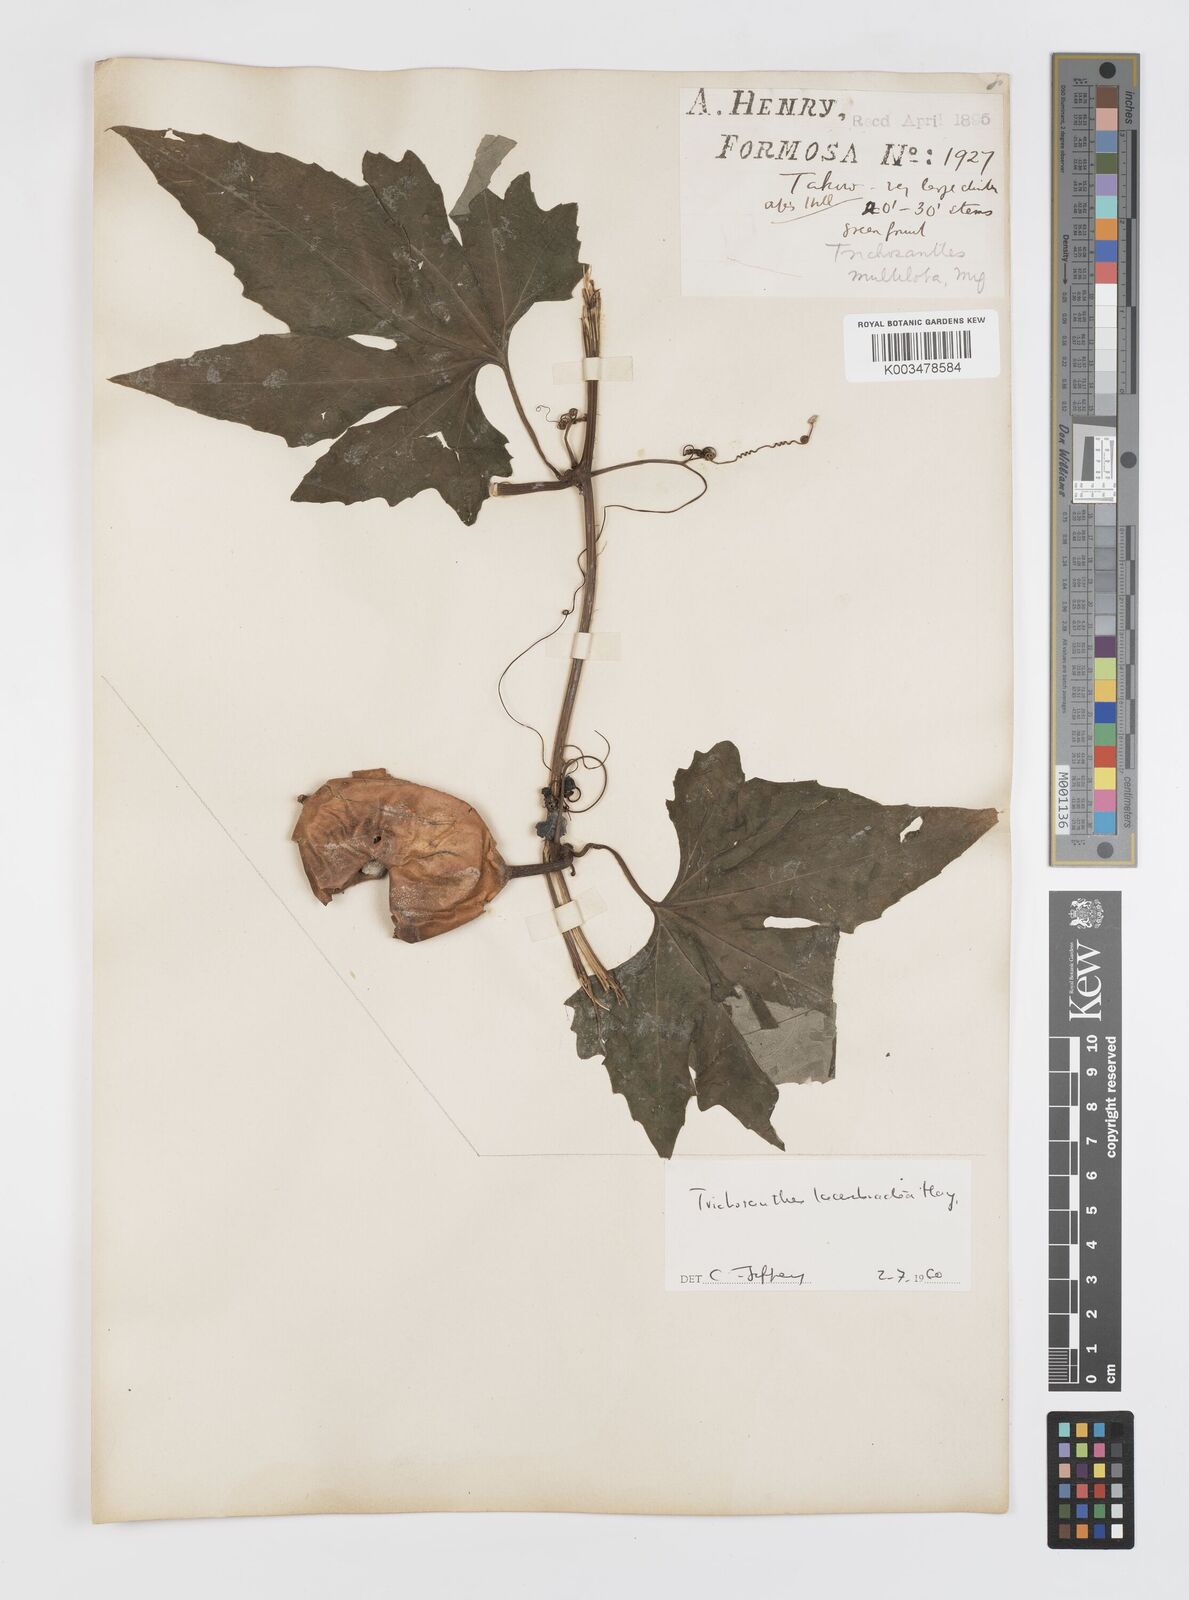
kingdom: Plantae
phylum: Tracheophyta
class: Magnoliopsida
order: Cucurbitales
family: Cucurbitaceae
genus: Trichosanthes
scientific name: Trichosanthes laceribractea
